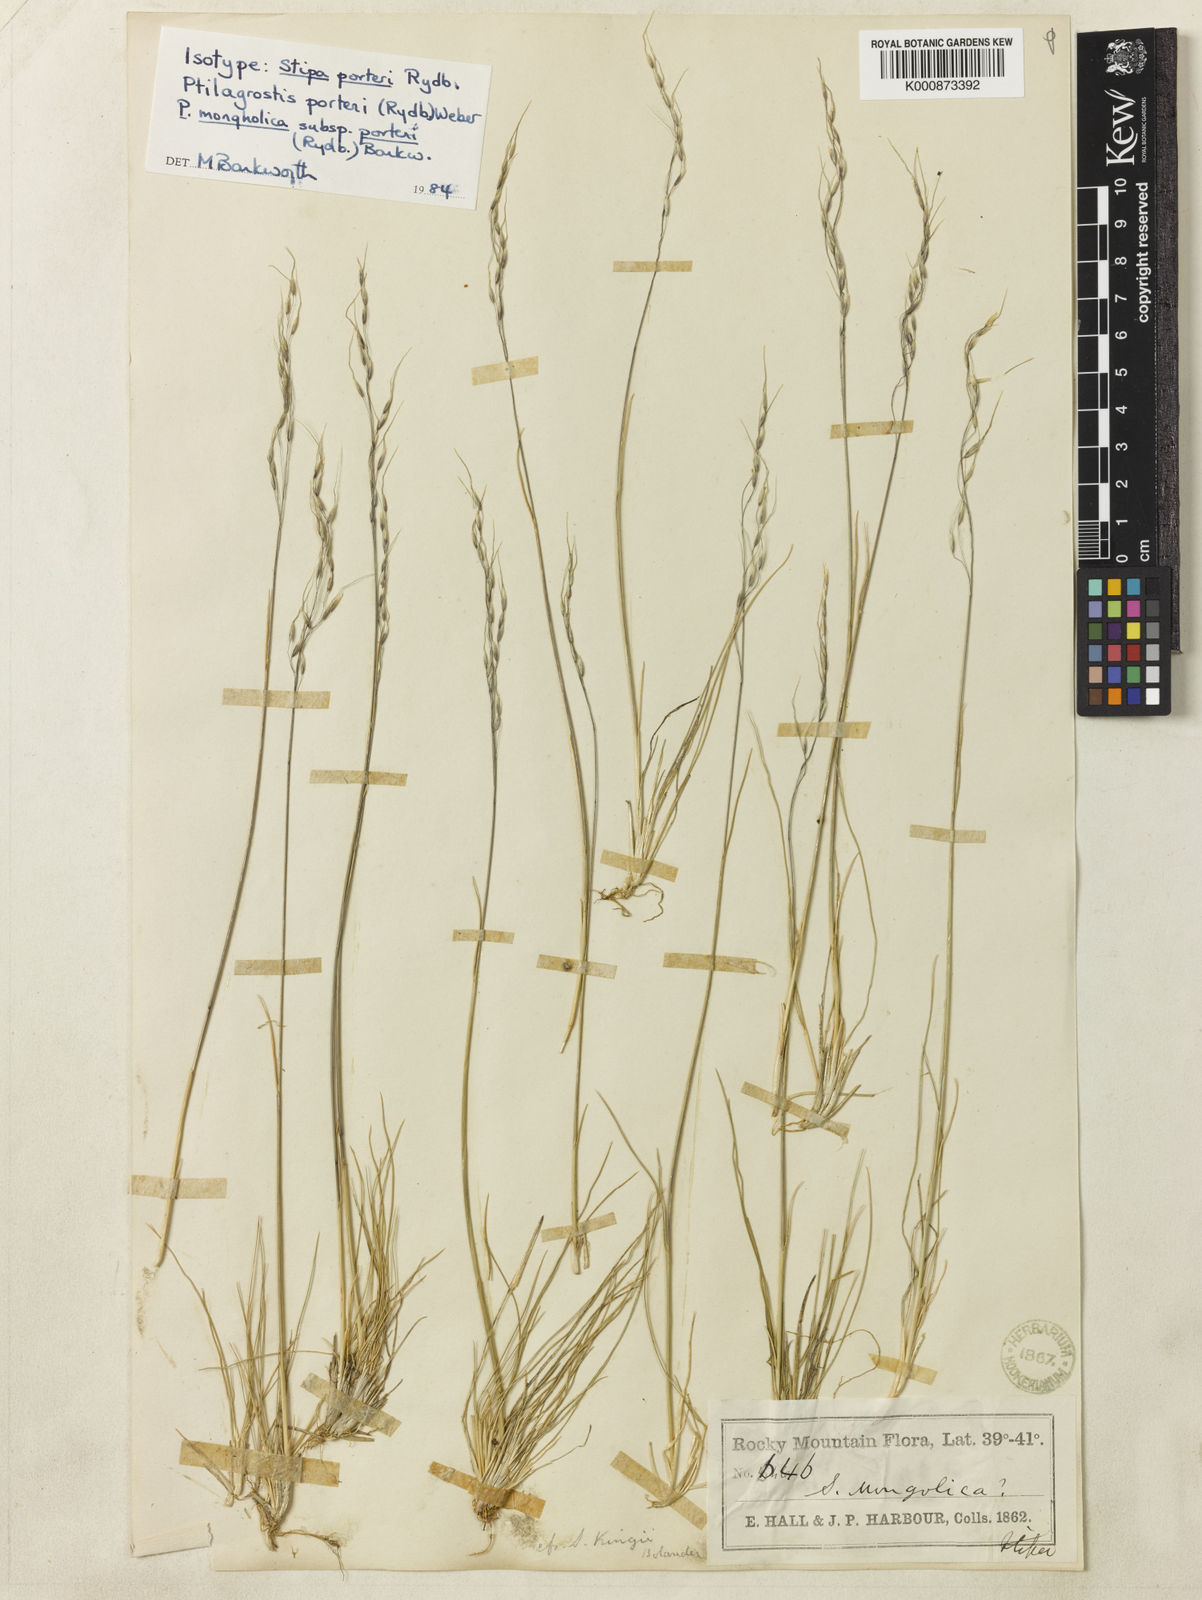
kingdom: Plantae
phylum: Tracheophyta
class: Liliopsida
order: Poales
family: Poaceae
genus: Ptilagrostis
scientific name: Ptilagrostis mongholica
